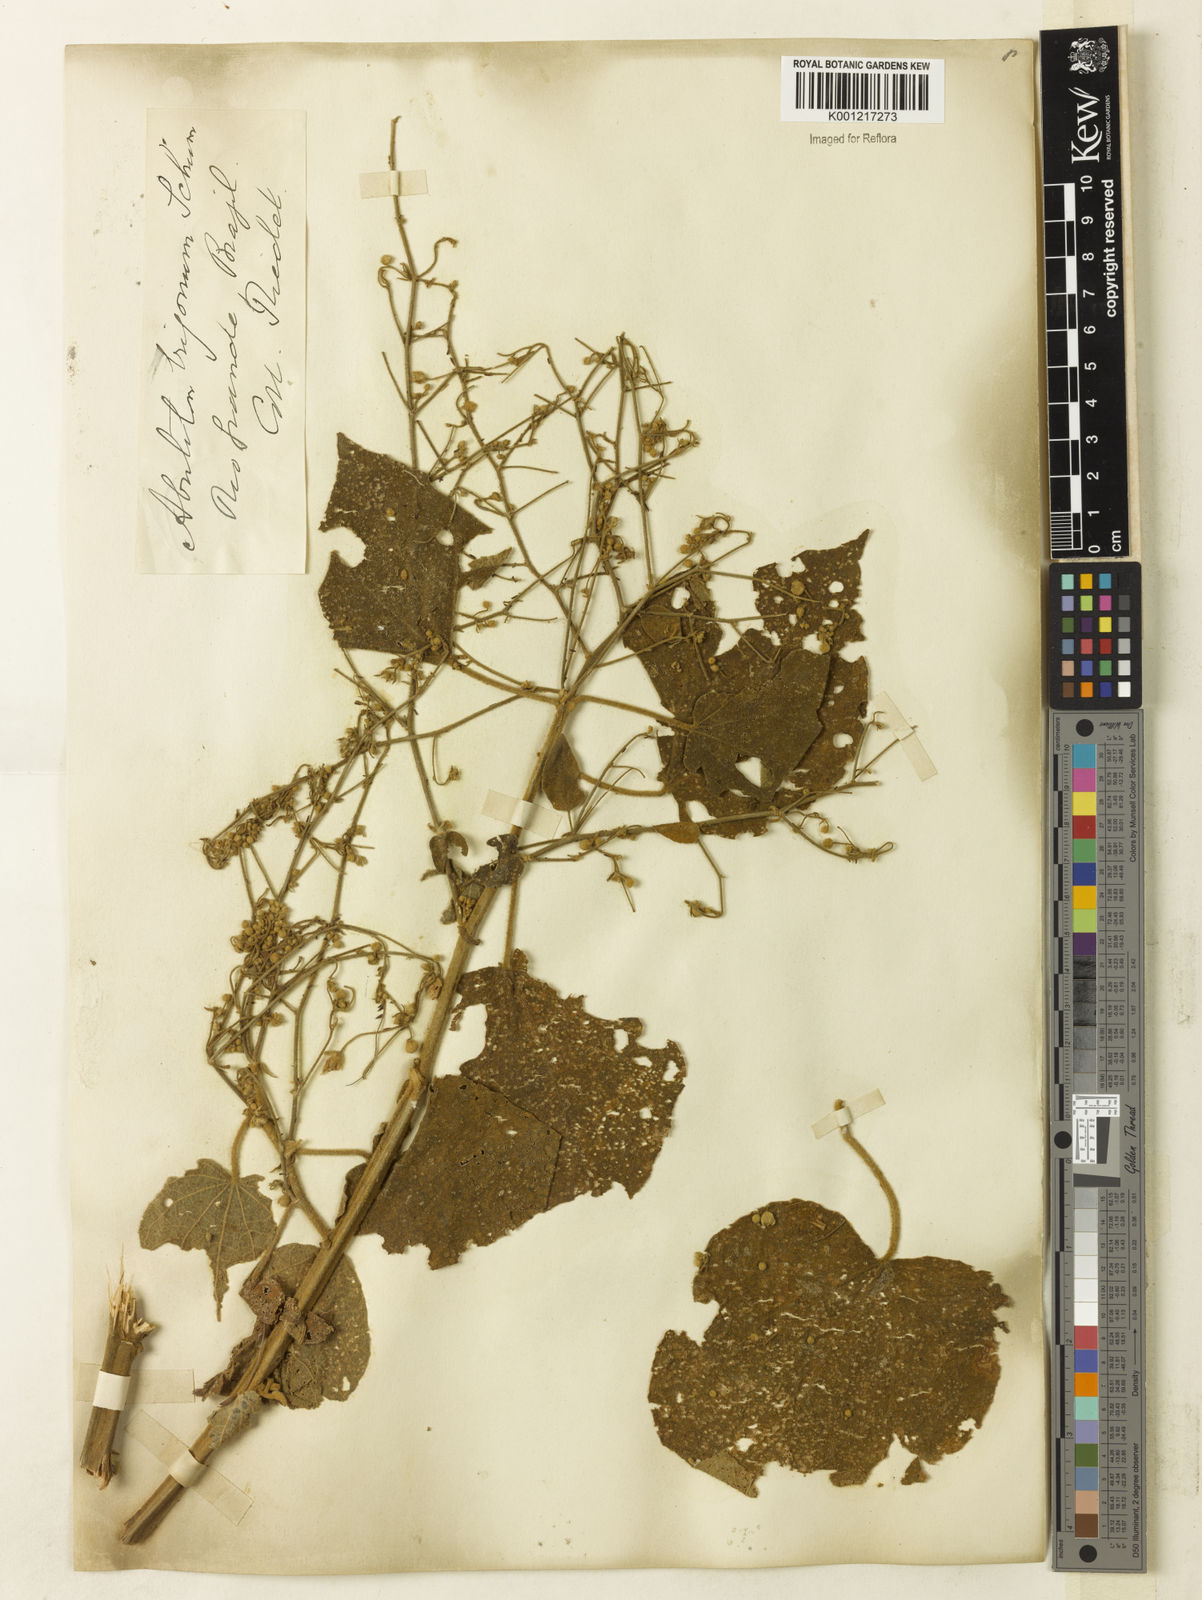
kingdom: Plantae
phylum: Tracheophyta
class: Magnoliopsida
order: Malvales
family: Malvaceae
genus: Abutilon
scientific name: Abutilon ramiflorum
